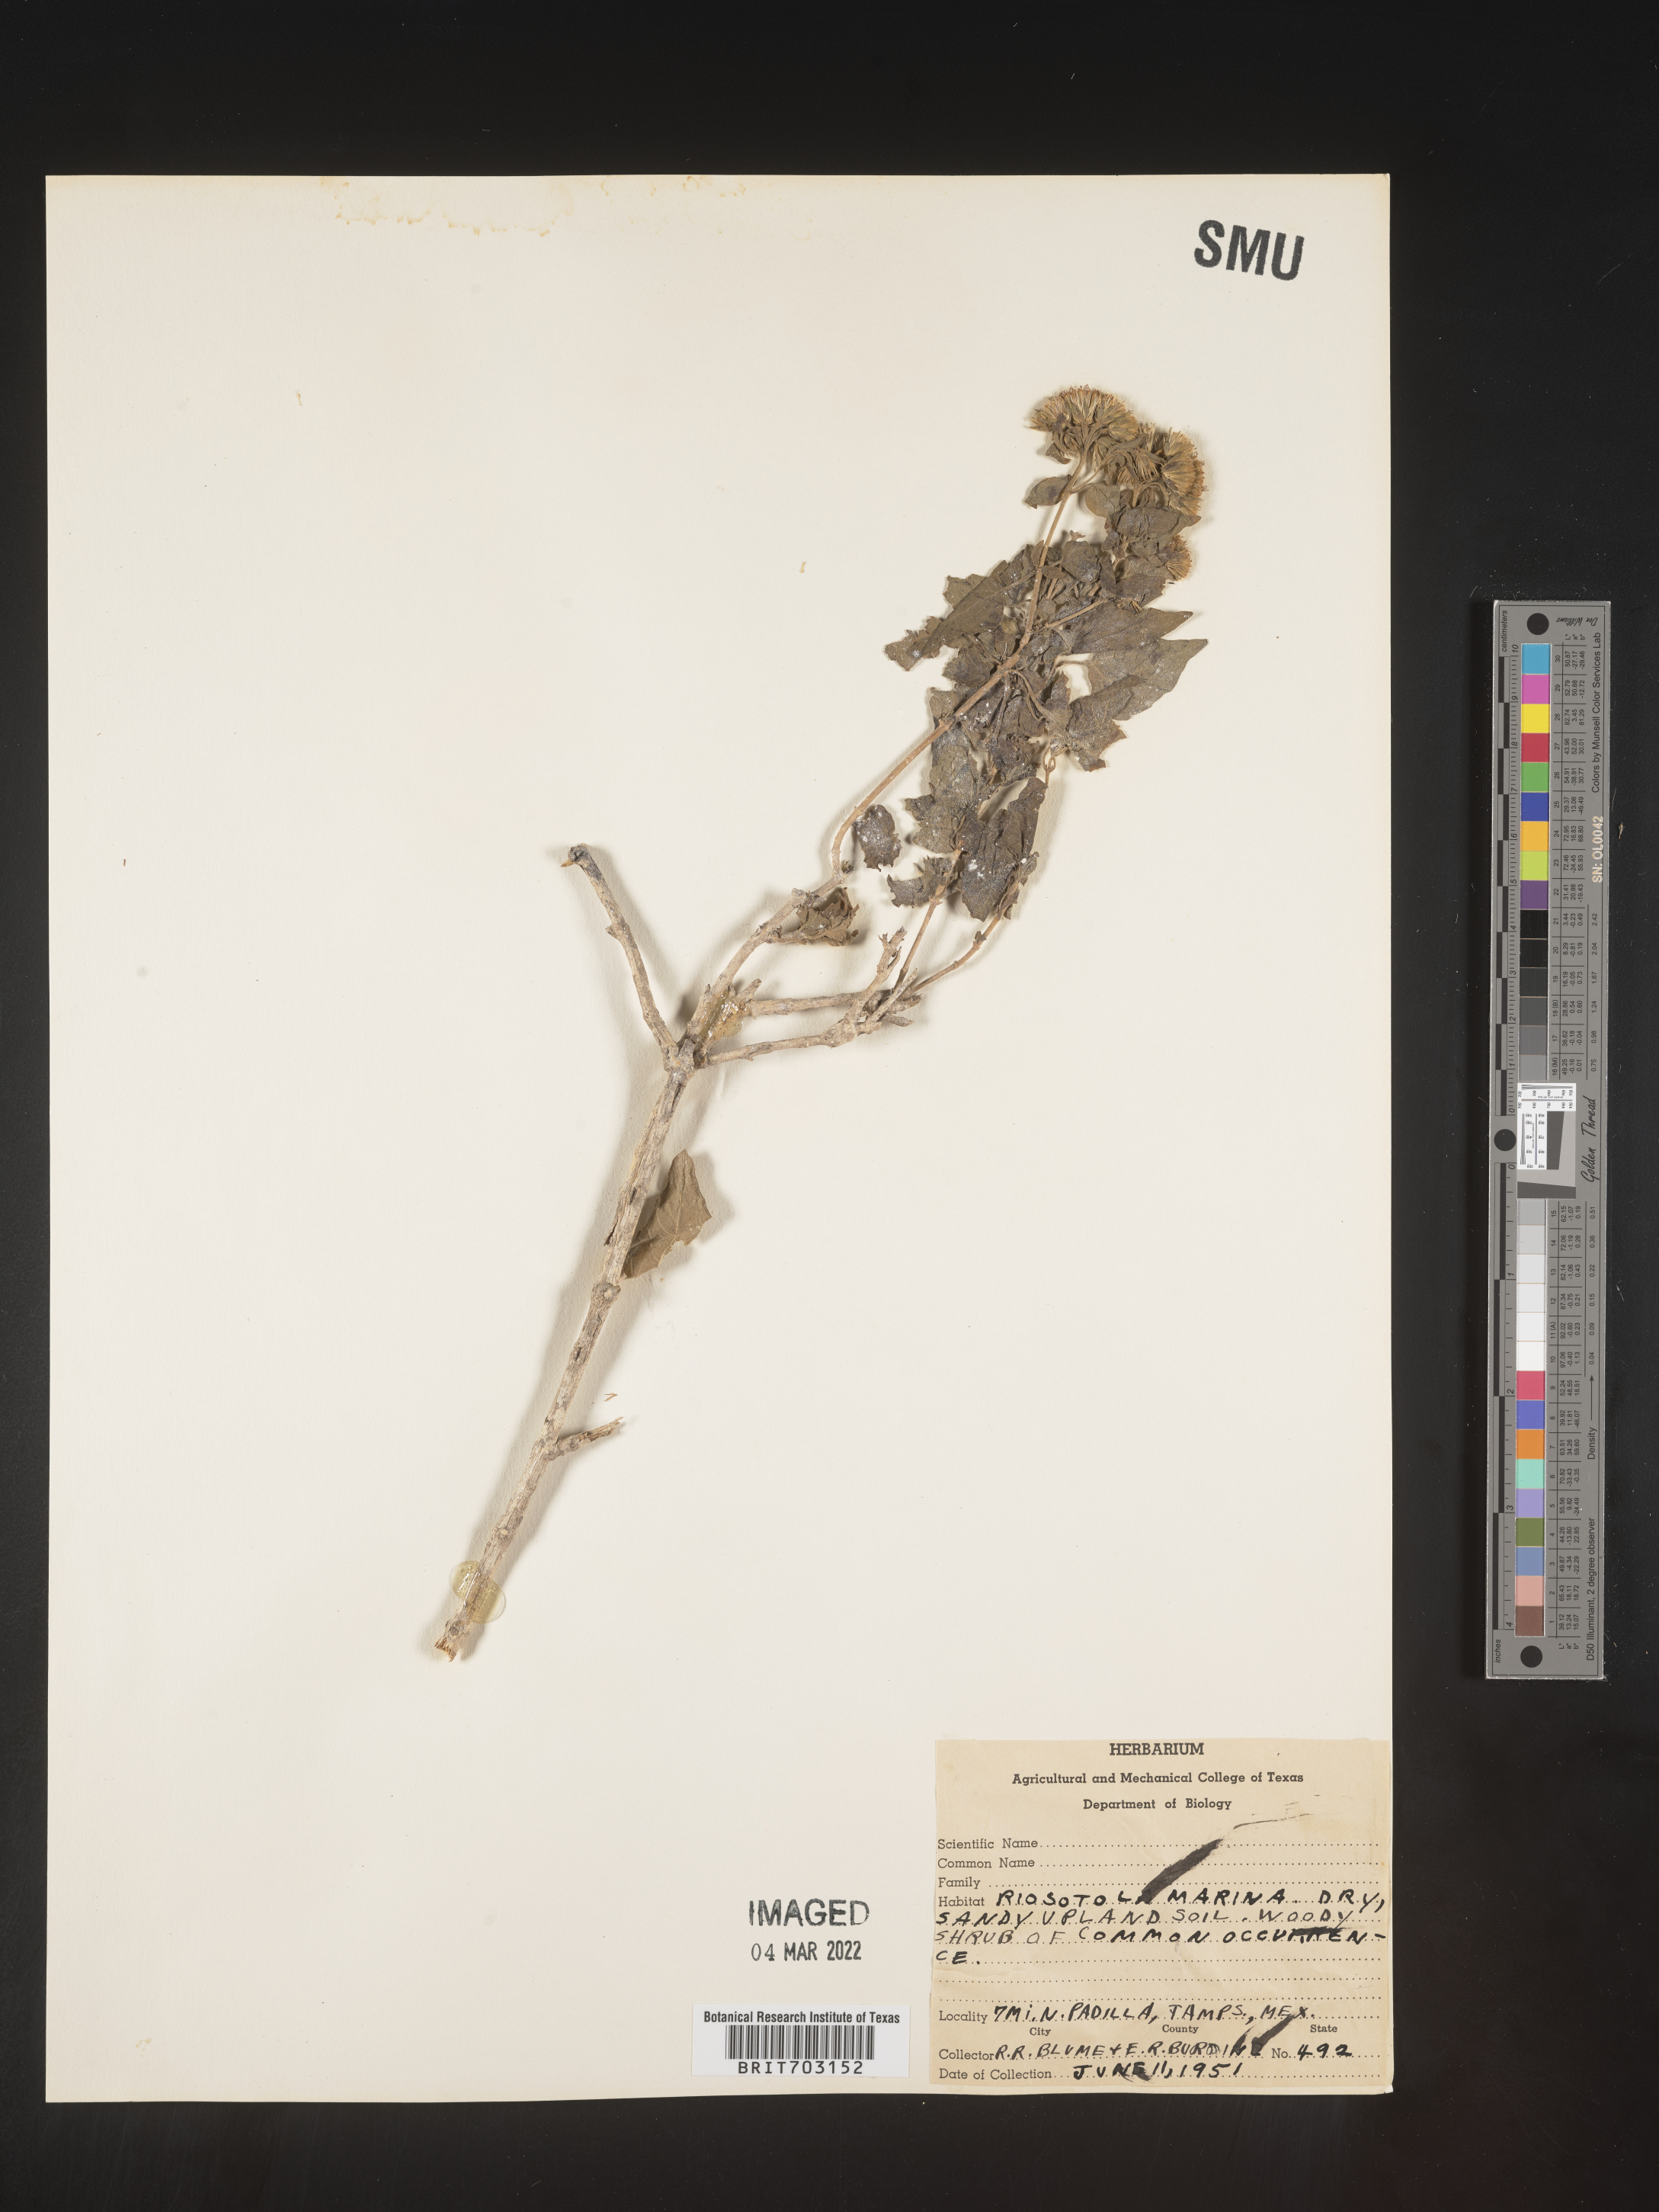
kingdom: Plantae
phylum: Tracheophyta
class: Magnoliopsida
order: Asterales
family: Asteraceae
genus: Eupatorium
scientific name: Eupatorium
